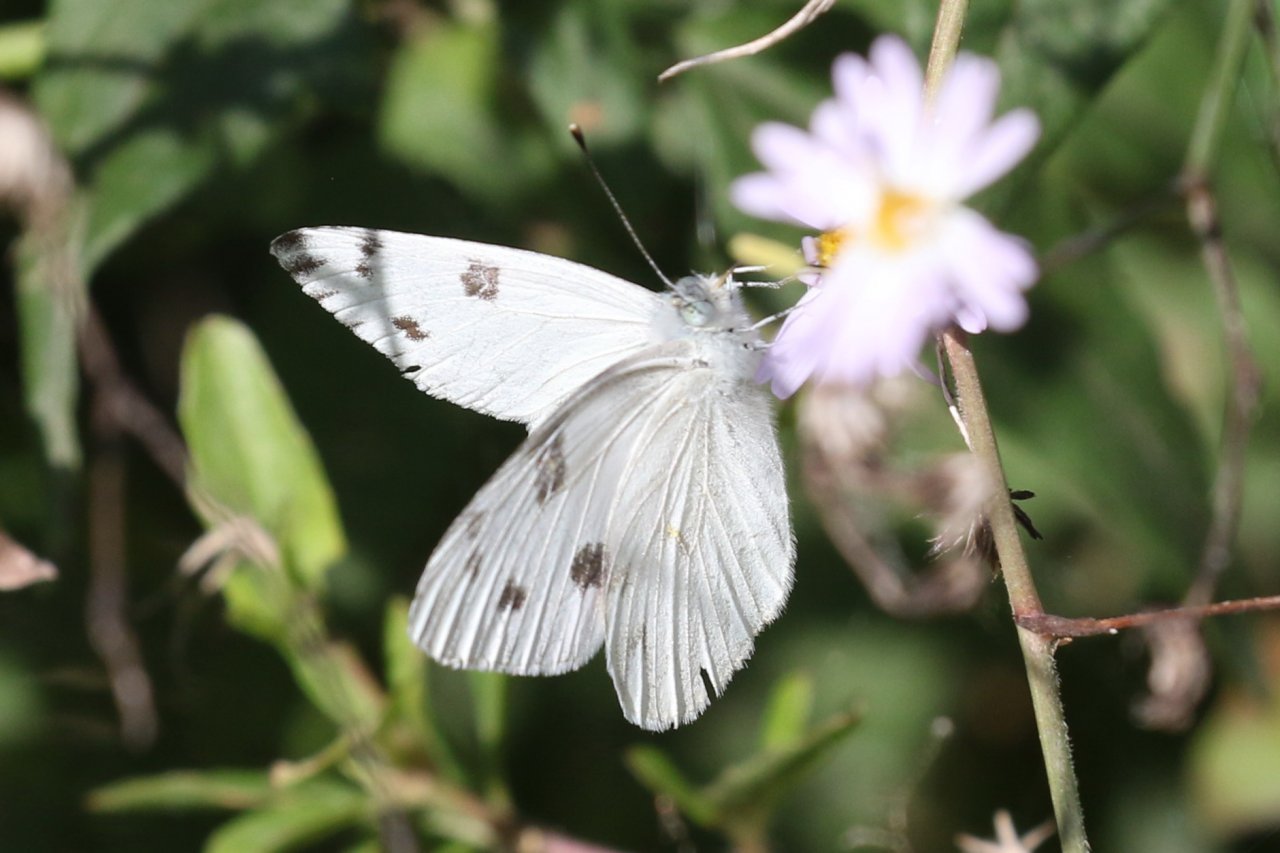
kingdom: Animalia
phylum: Arthropoda
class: Insecta
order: Lepidoptera
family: Pieridae
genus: Pontia
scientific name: Pontia protodice
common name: Checkered White
